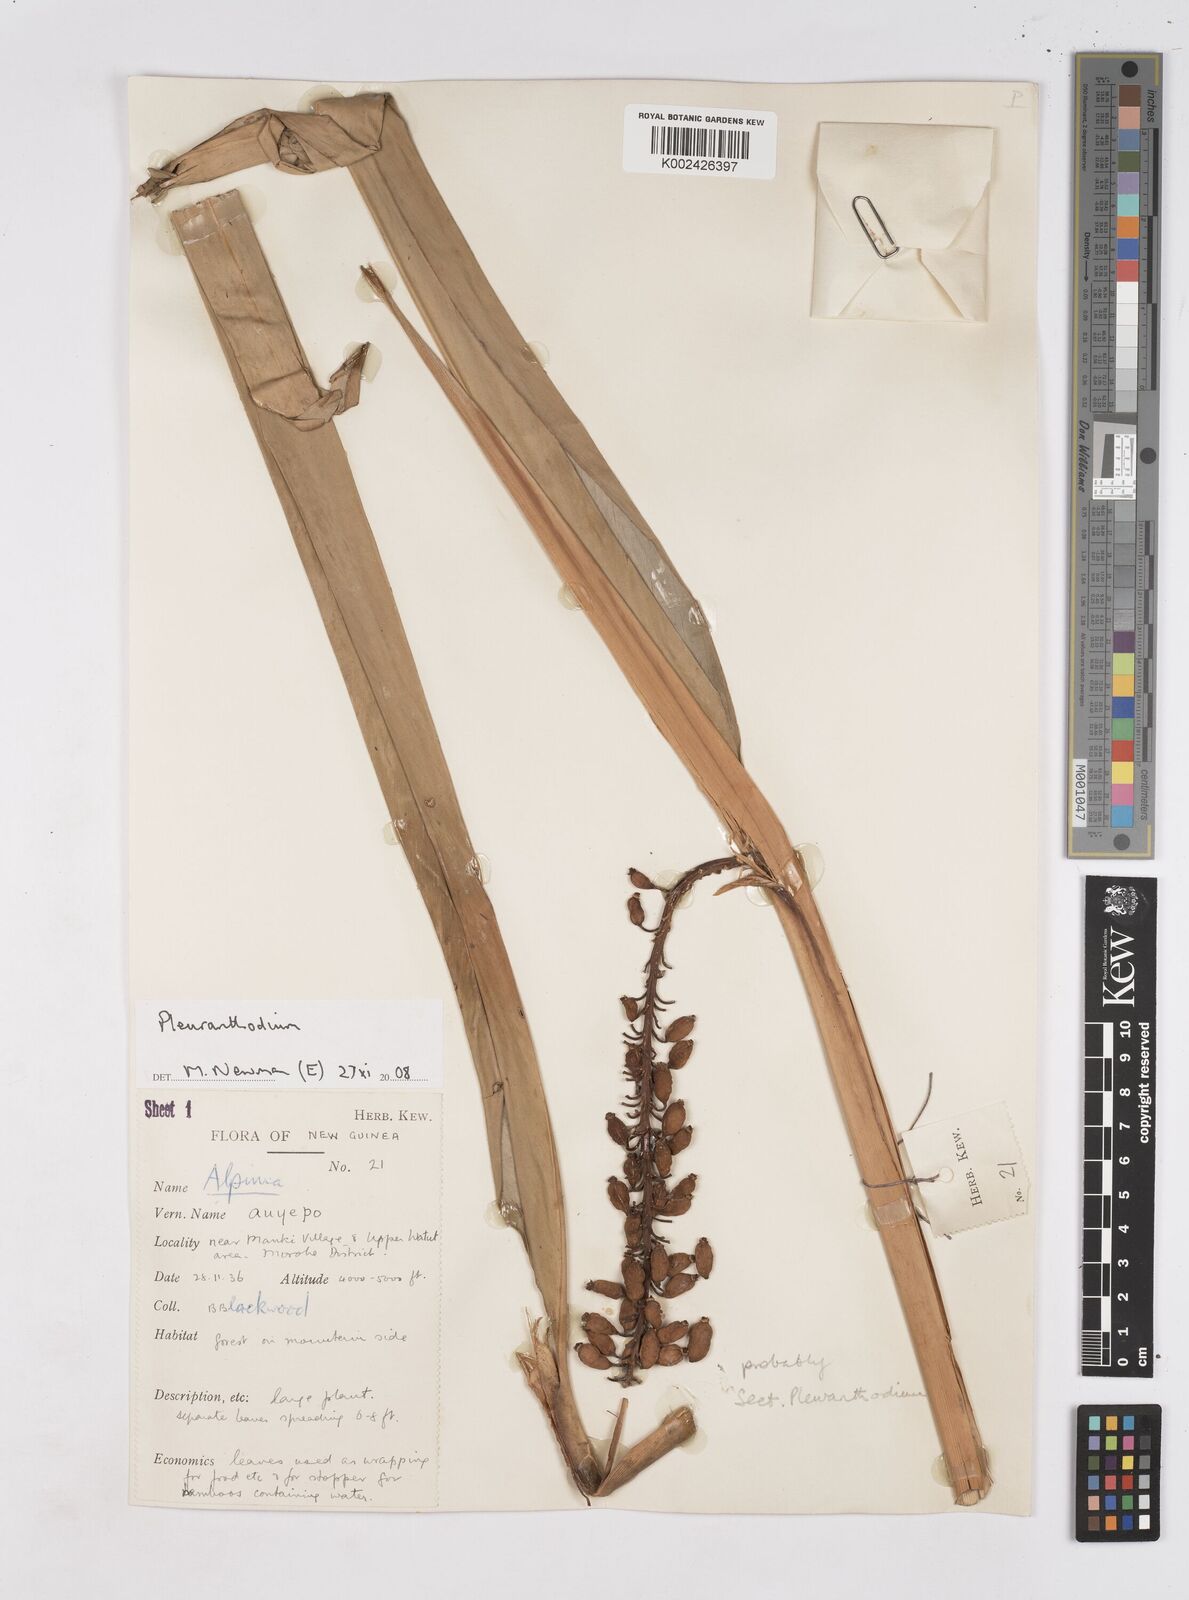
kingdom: Plantae
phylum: Tracheophyta
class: Liliopsida
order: Zingiberales
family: Zingiberaceae
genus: Pleuranthodium
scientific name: Pleuranthodium
